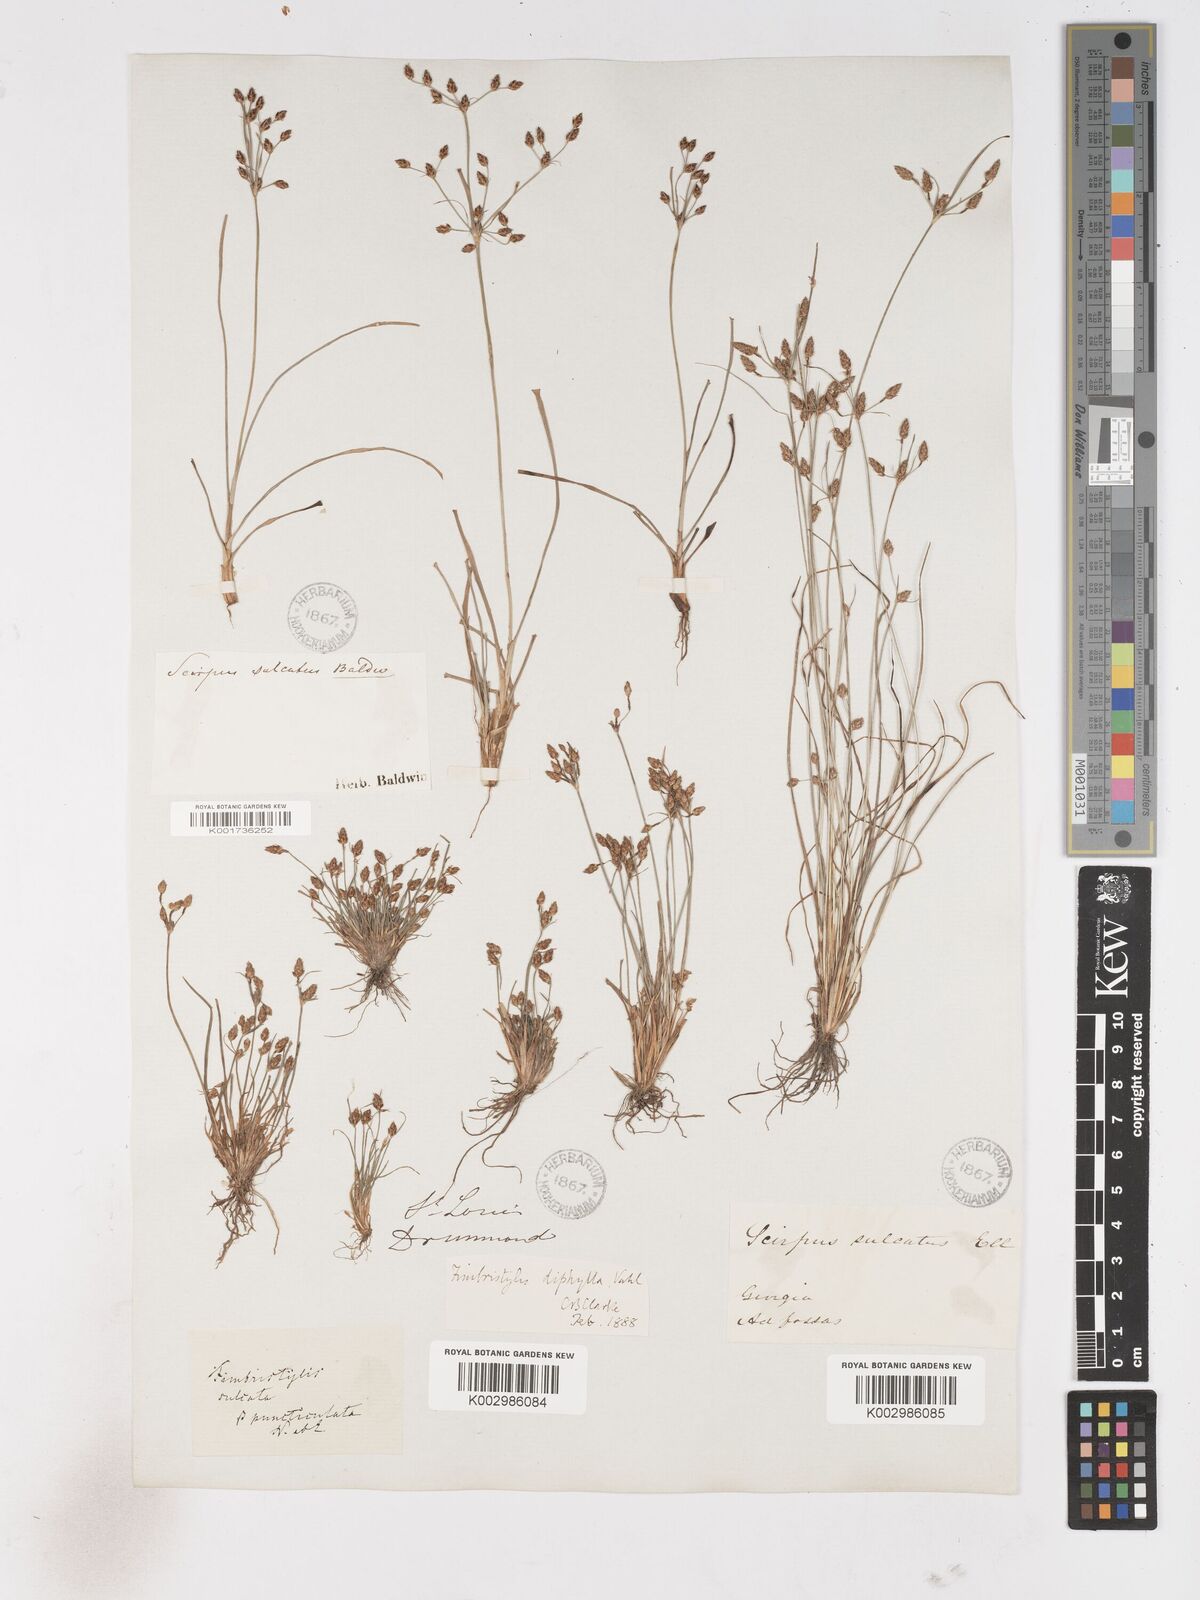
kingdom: Plantae
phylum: Tracheophyta
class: Liliopsida
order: Poales
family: Cyperaceae
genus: Fimbristylis
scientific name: Fimbristylis dichotoma
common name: Forked fimbry
